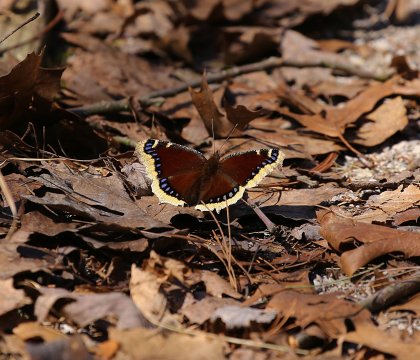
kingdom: Animalia
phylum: Arthropoda
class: Insecta
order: Lepidoptera
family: Nymphalidae
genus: Nymphalis
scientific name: Nymphalis antiopa
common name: Mourning Cloak
